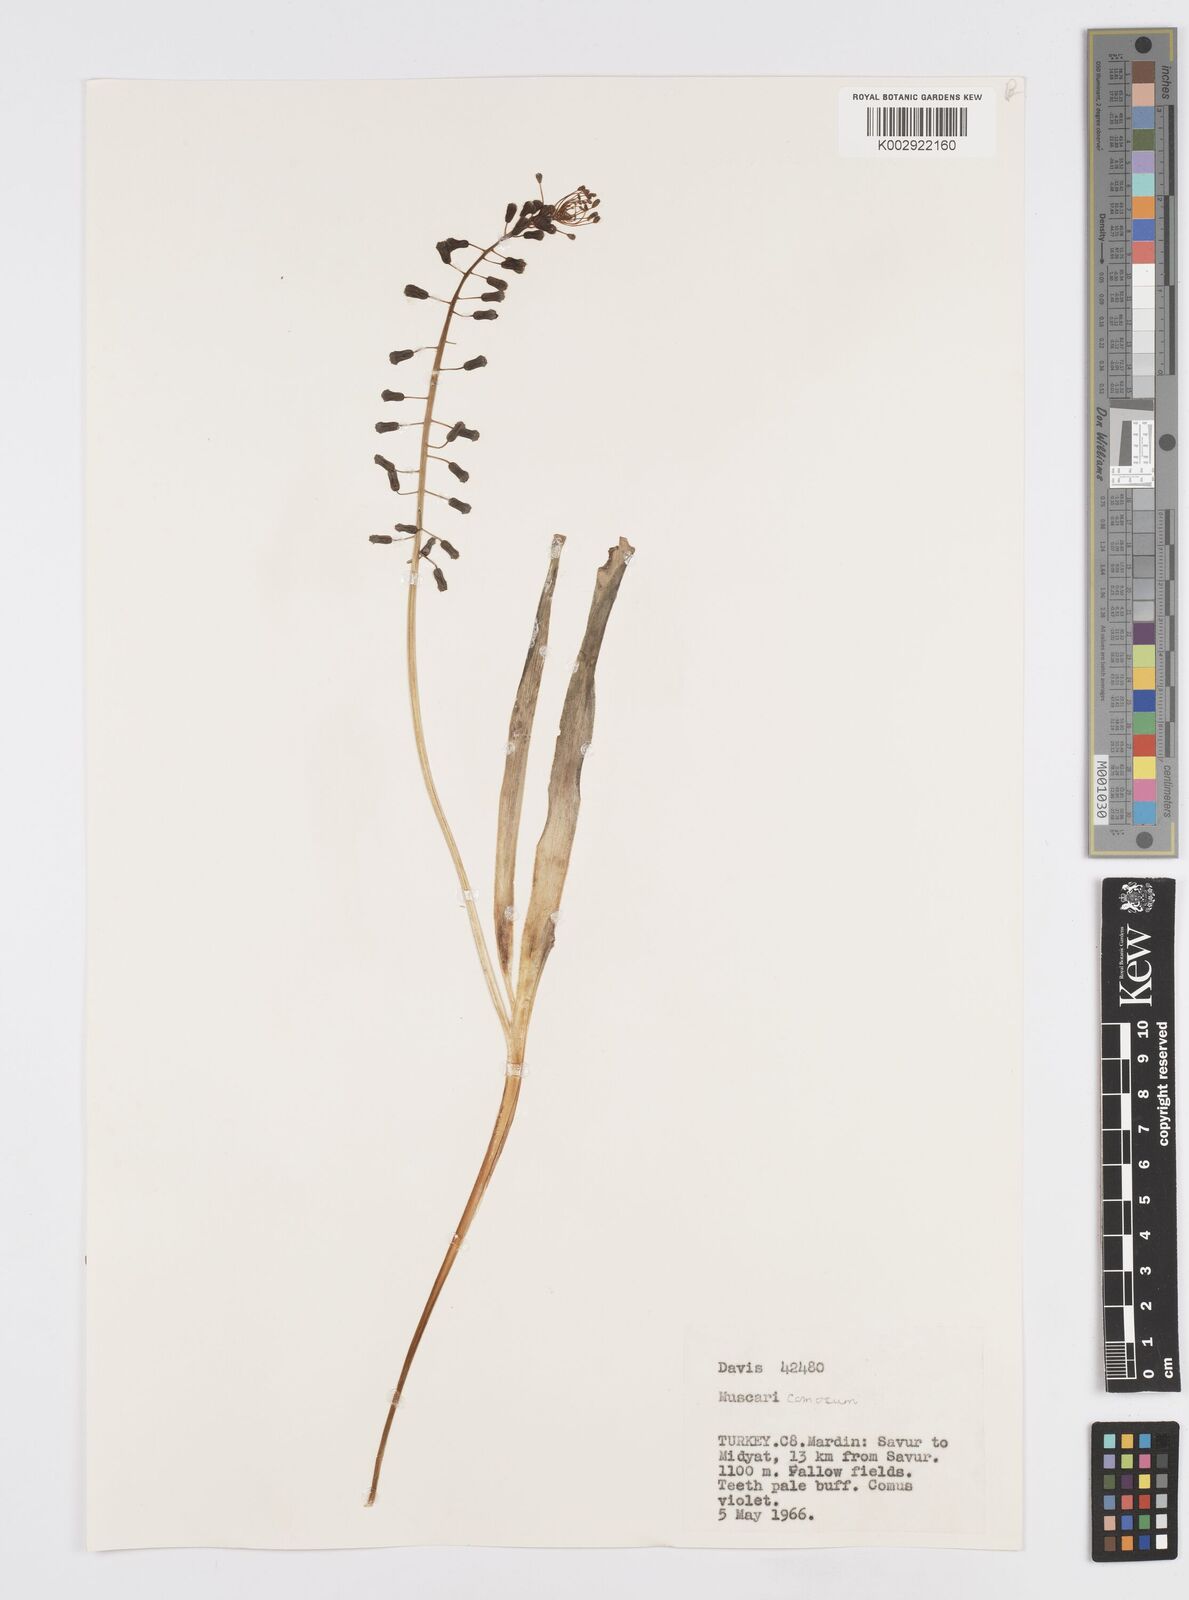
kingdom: Plantae
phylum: Tracheophyta
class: Liliopsida
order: Asparagales
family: Asparagaceae
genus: Muscari
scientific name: Muscari comosum
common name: Tassel hyacinth
